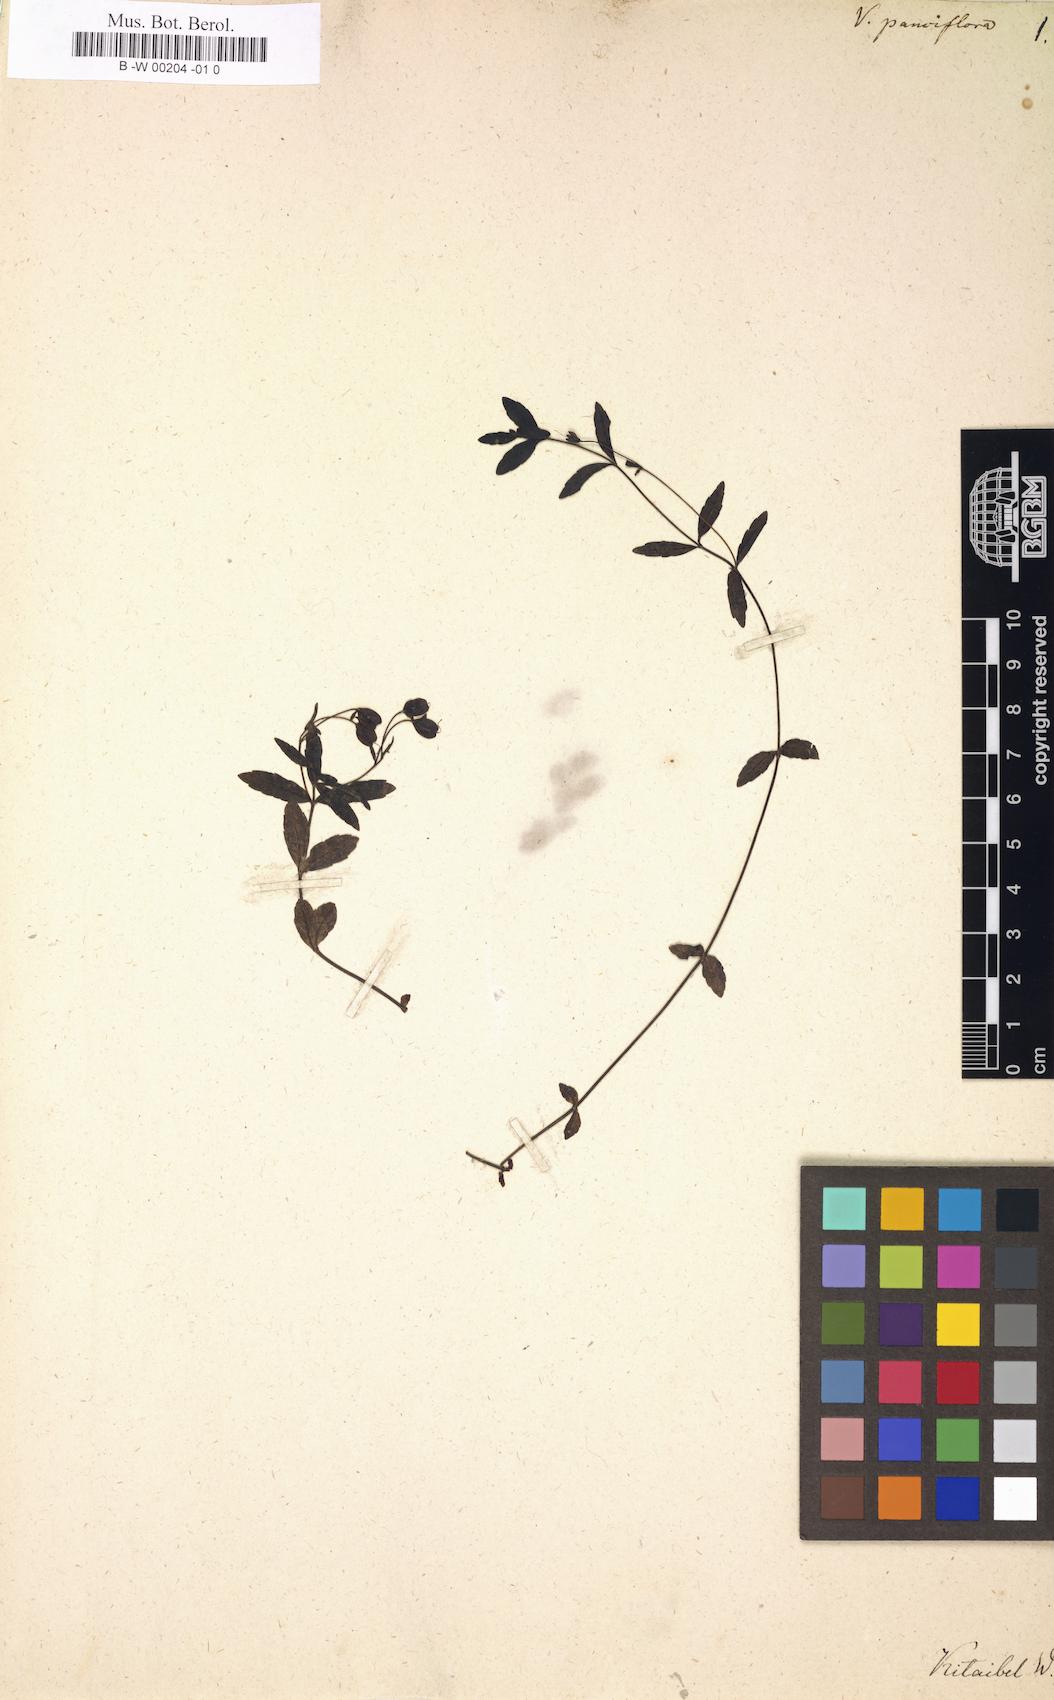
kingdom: Plantae
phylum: Tracheophyta
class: Magnoliopsida
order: Lamiales
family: Plantaginaceae
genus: Veronica
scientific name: Veronica
